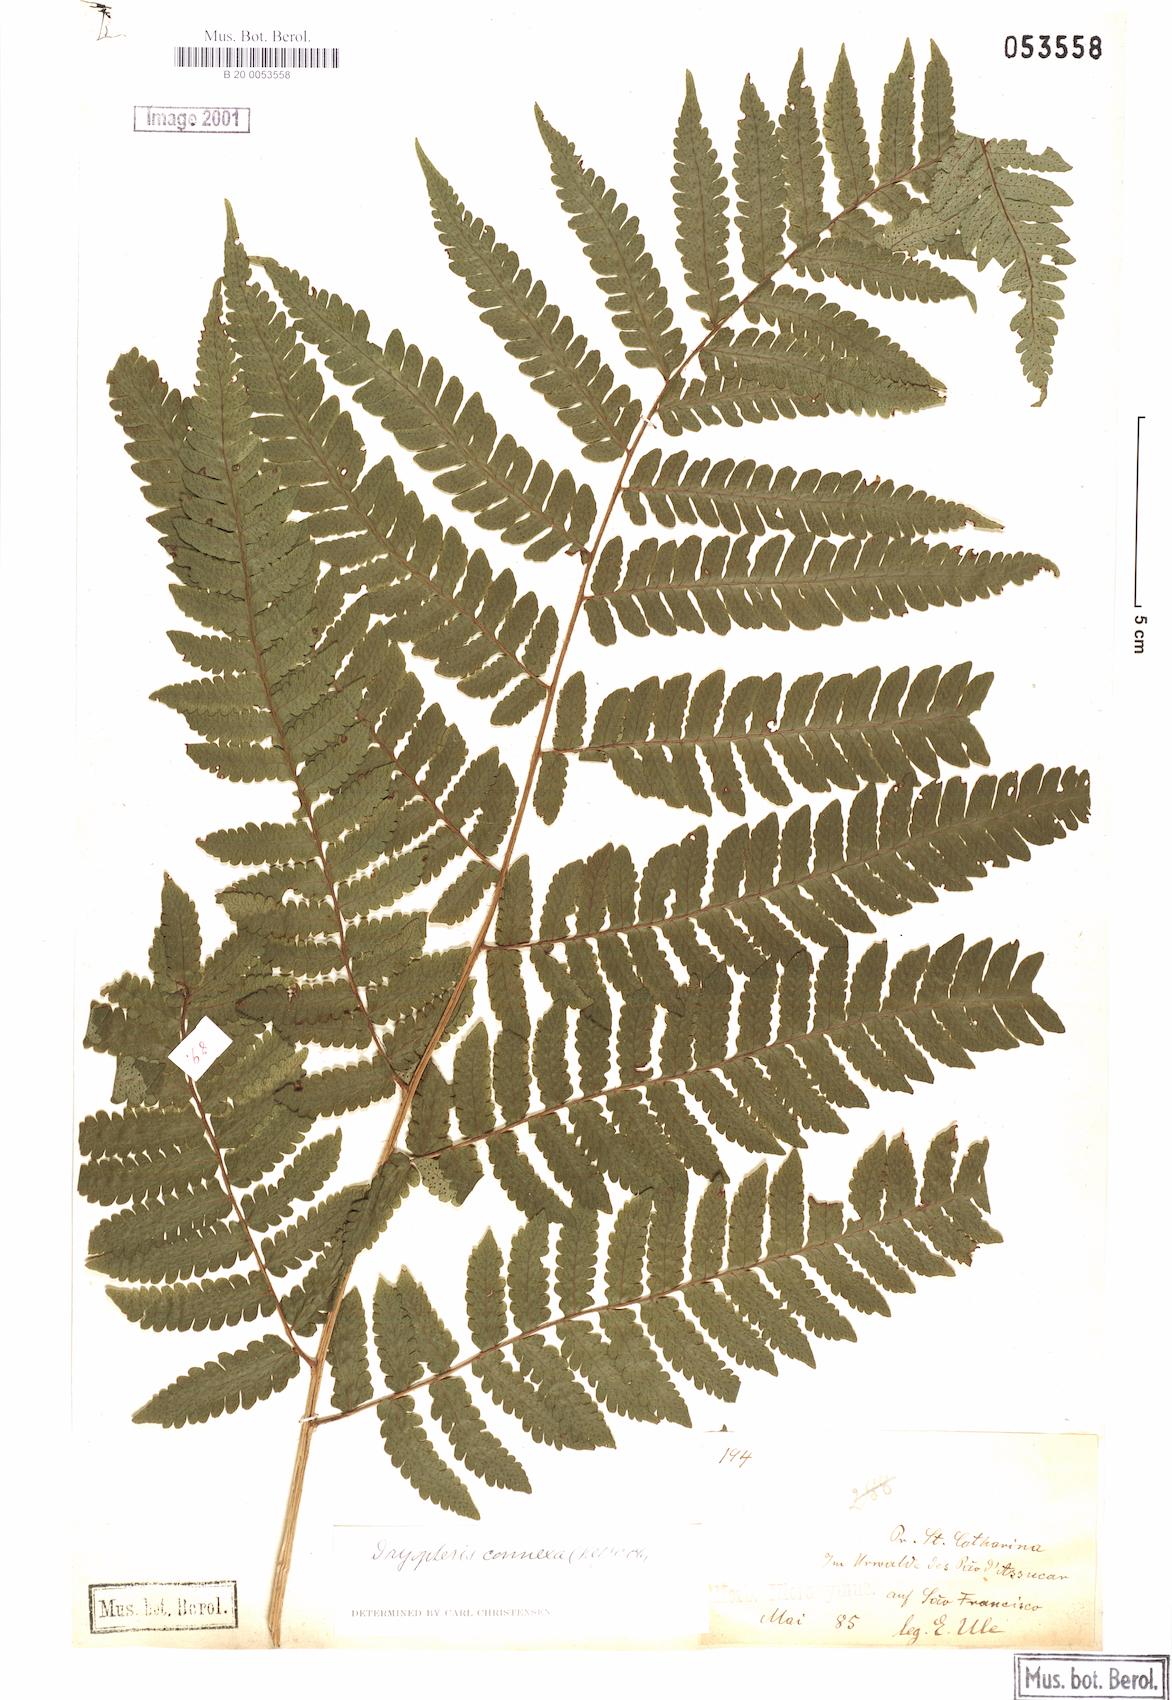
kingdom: Plantae
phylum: Tracheophyta
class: Polypodiopsida
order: Polypodiales
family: Dryopteridaceae
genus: Megalastrum
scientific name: Megalastrum connexum
